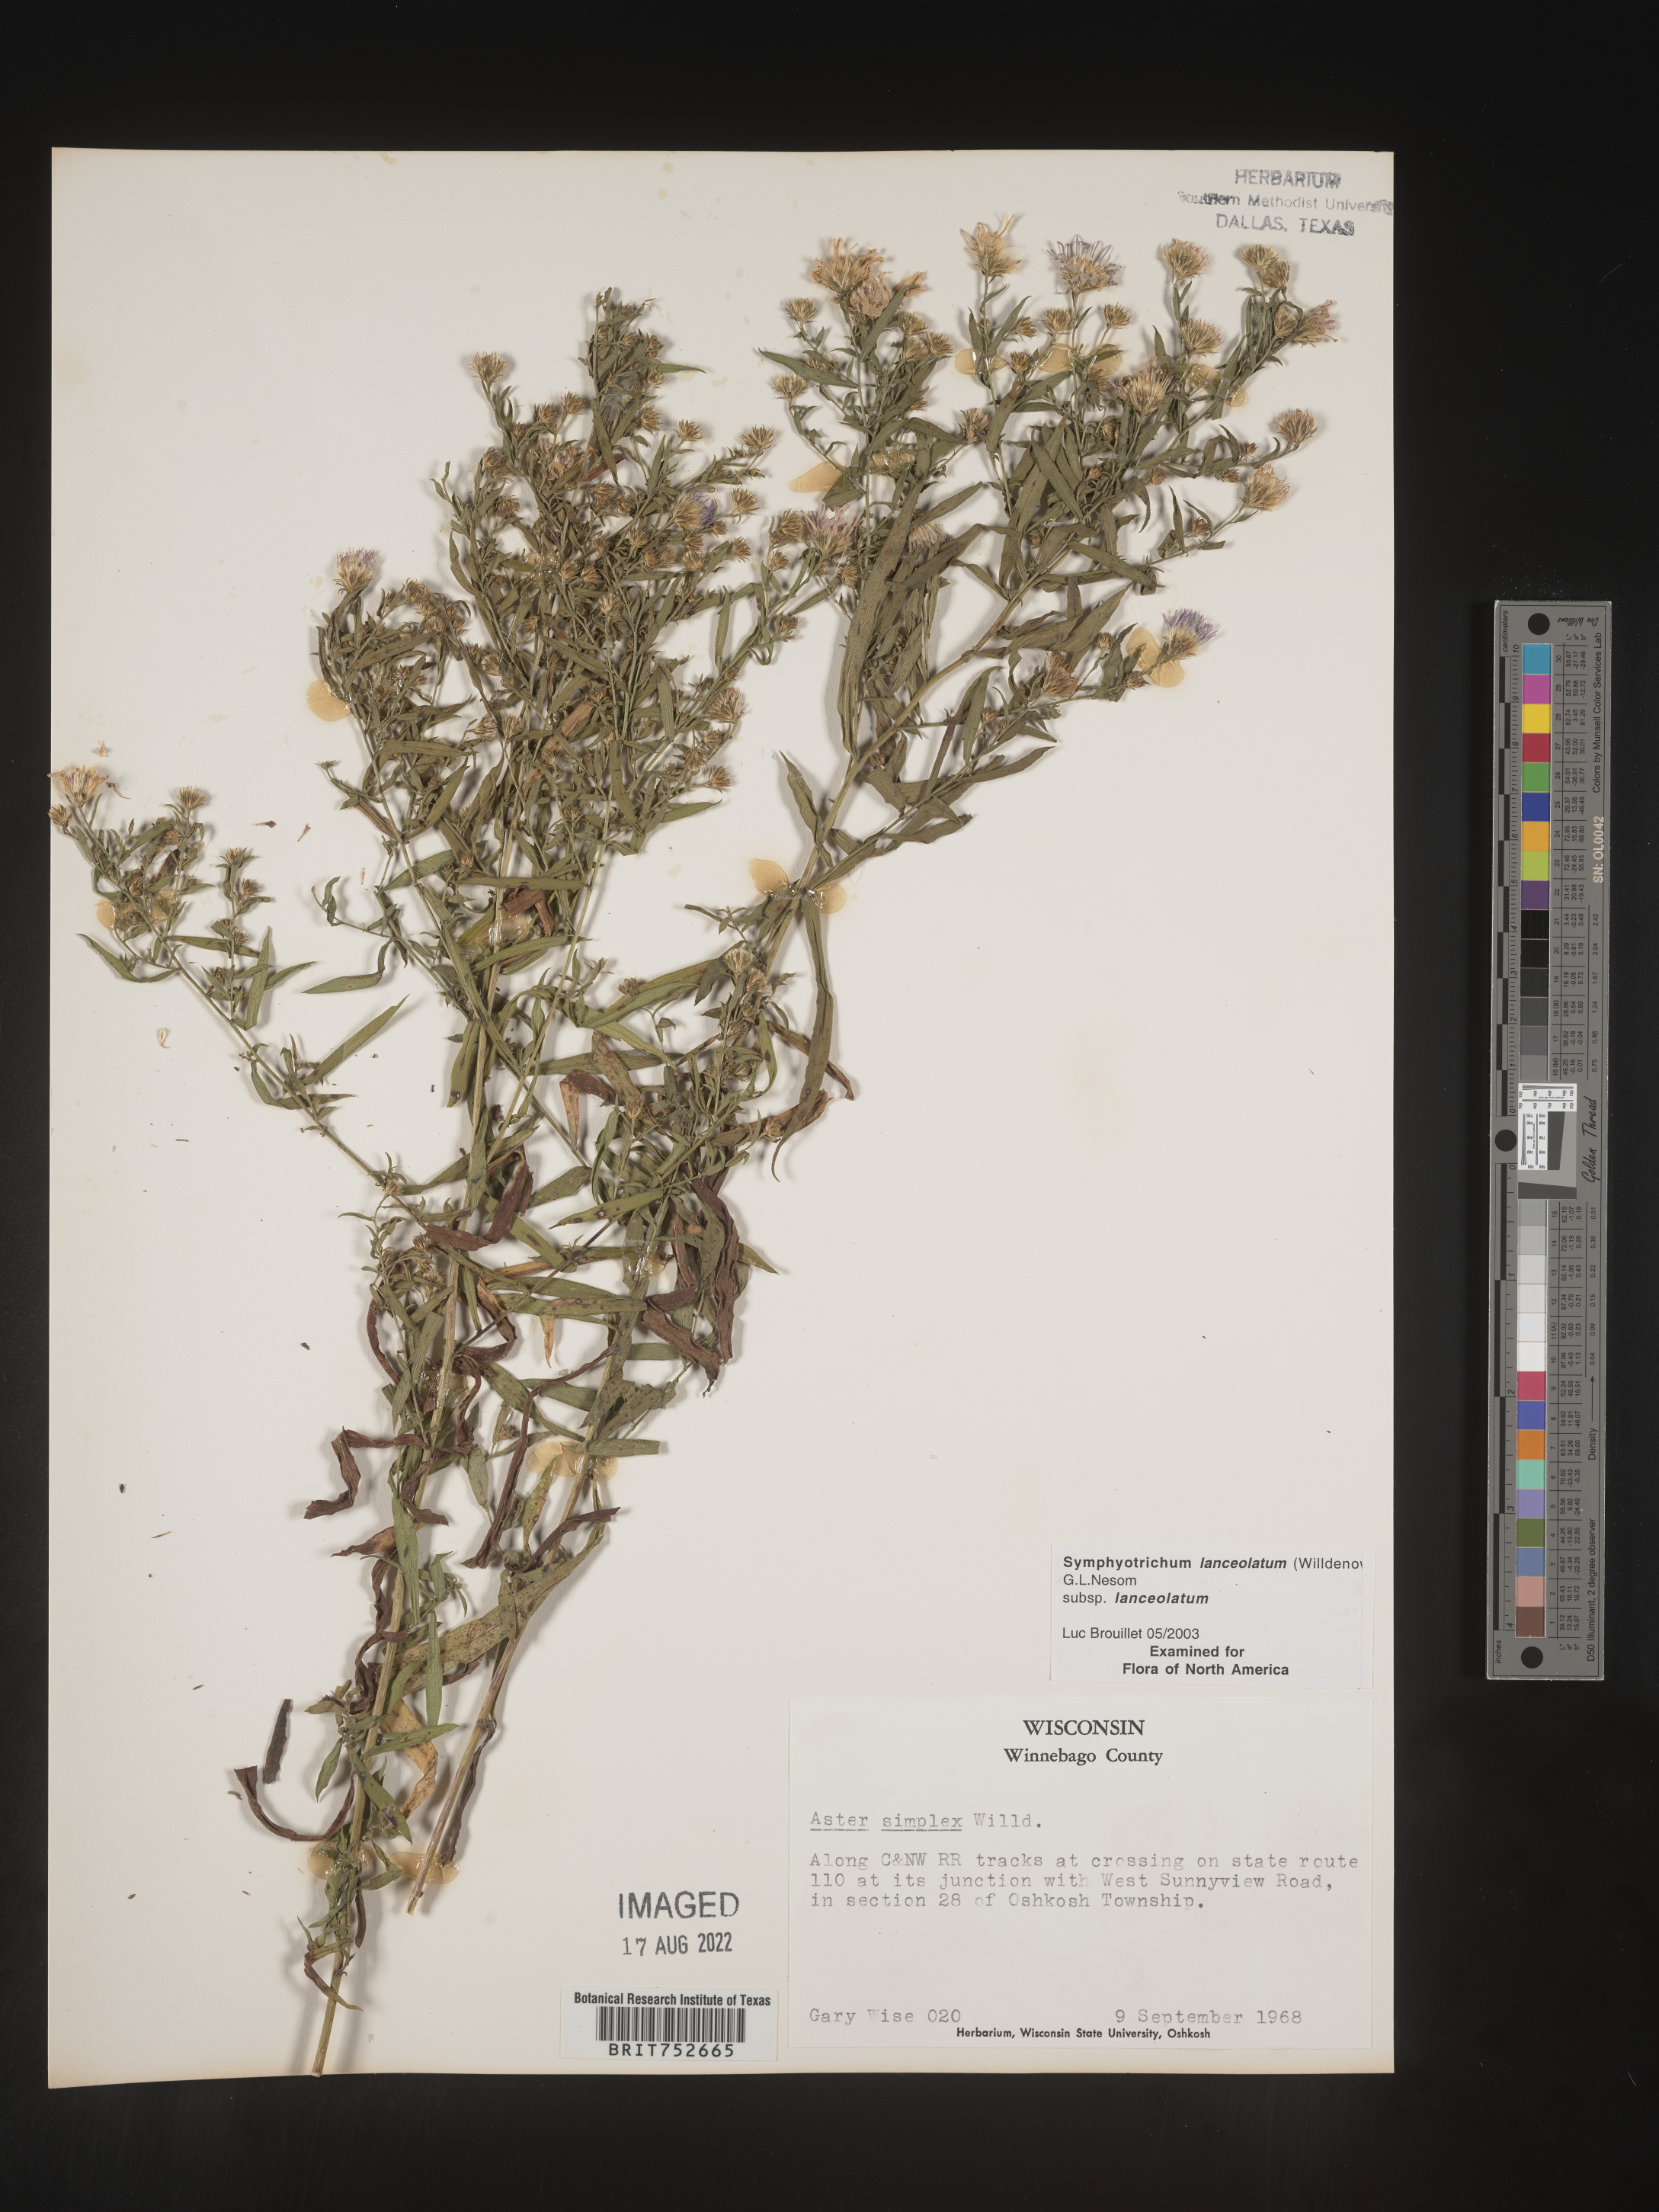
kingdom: Plantae
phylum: Tracheophyta
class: Magnoliopsida
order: Asterales
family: Asteraceae
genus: Symphyotrichum
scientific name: Symphyotrichum lanceolatum
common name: Panicled aster
